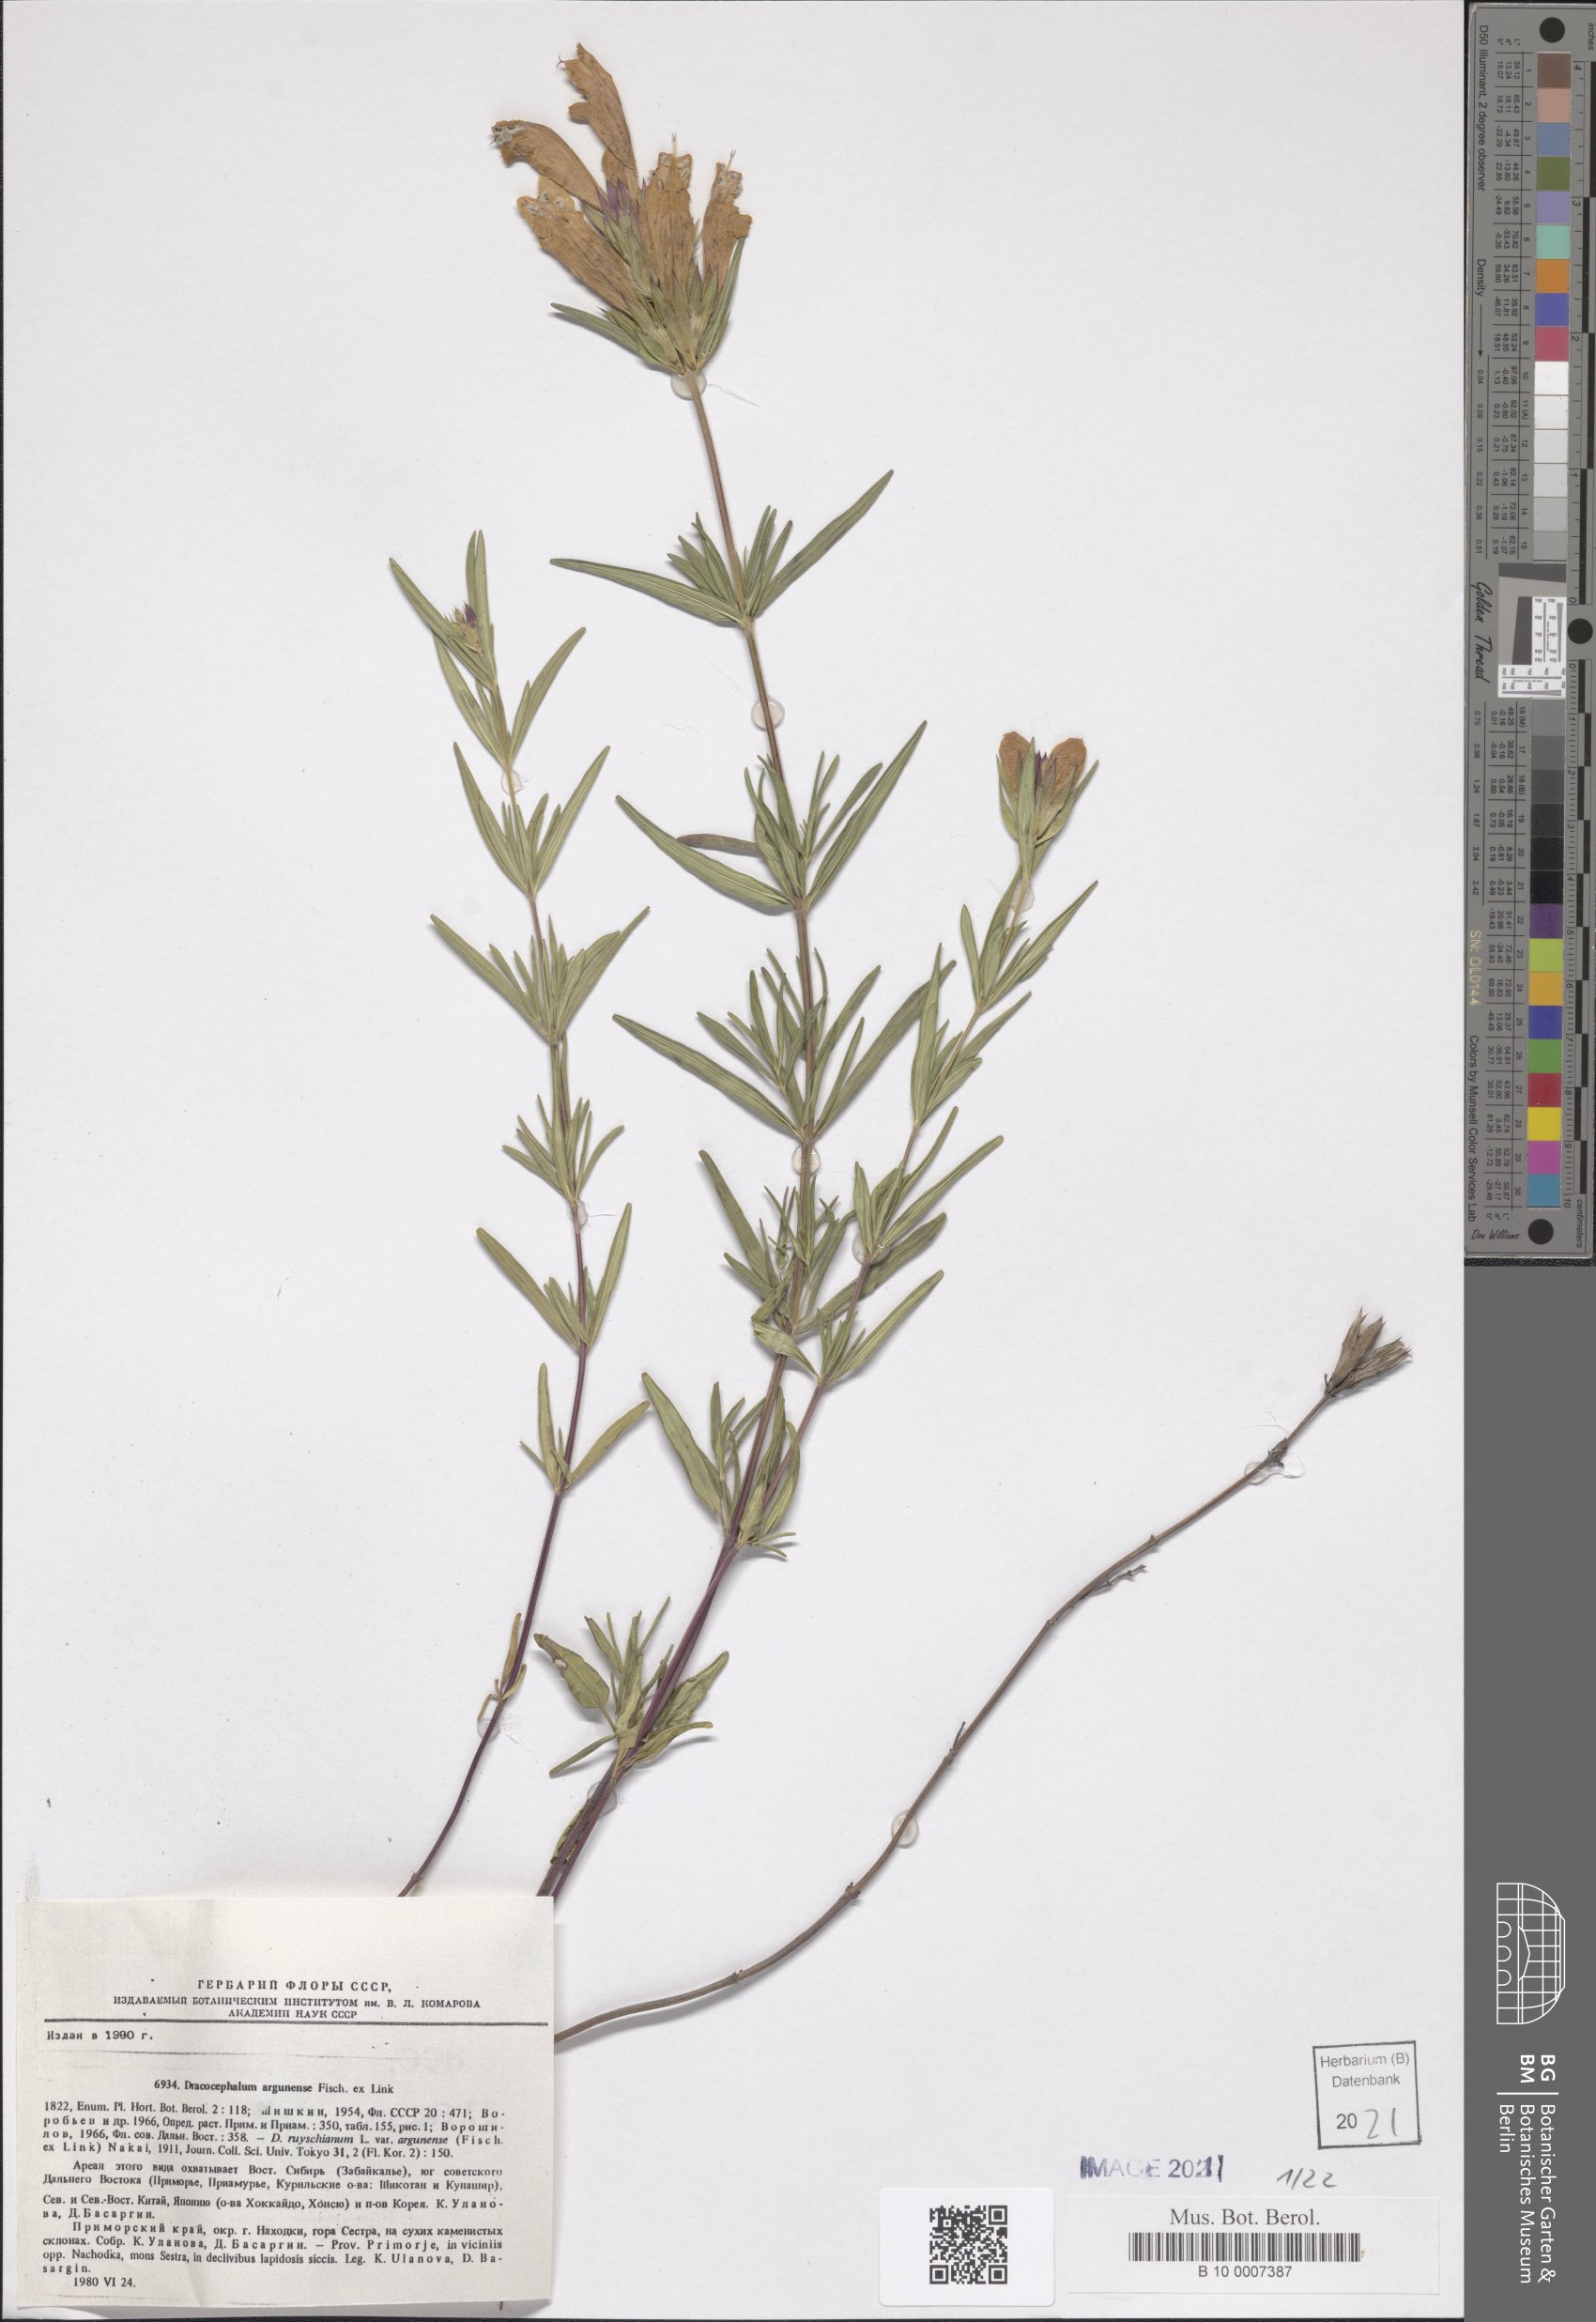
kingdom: Plantae
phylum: Tracheophyta
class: Magnoliopsida
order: Lamiales
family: Lamiaceae
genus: Dracocephalum
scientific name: Dracocephalum argunense
